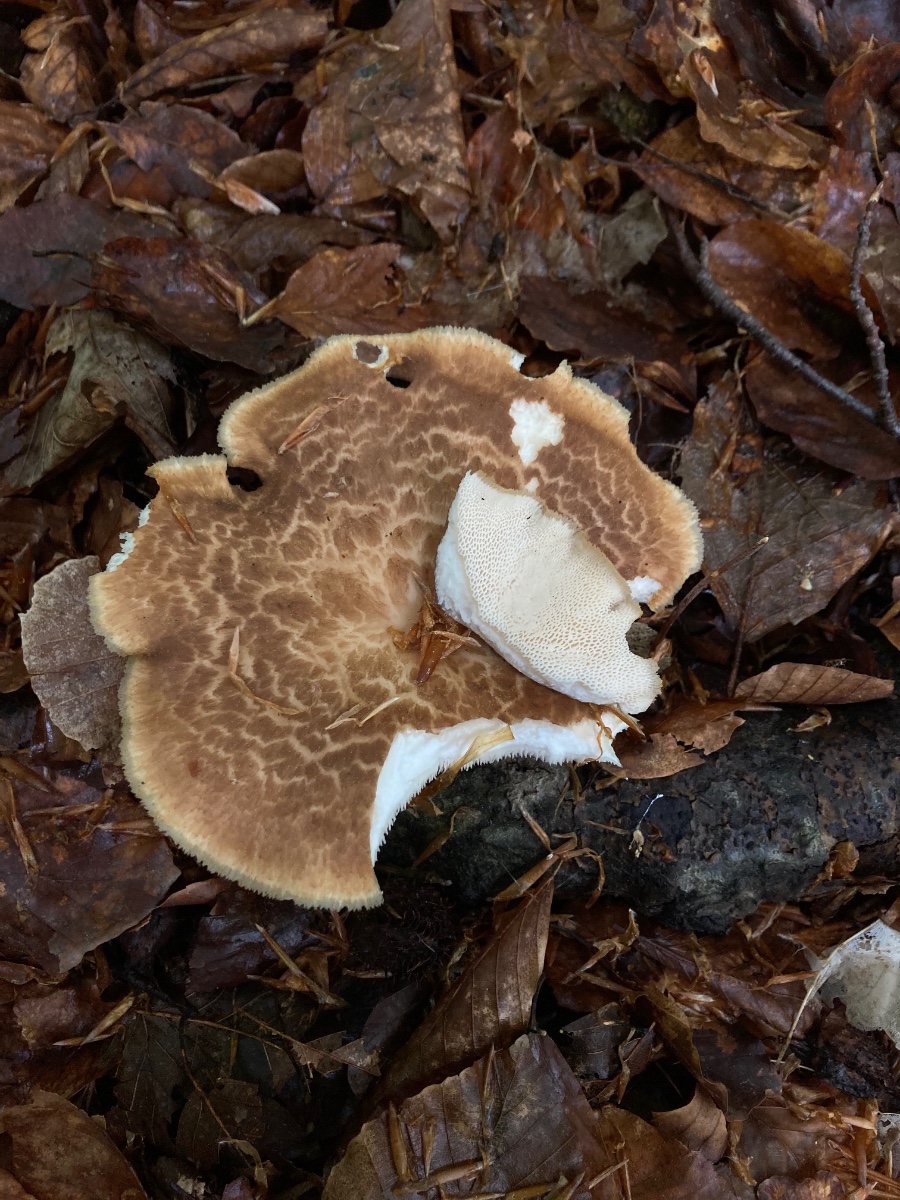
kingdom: Fungi
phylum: Basidiomycota
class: Agaricomycetes
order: Polyporales
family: Polyporaceae
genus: Polyporus
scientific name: Polyporus tuberaster
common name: knoldet stilkporesvamp
